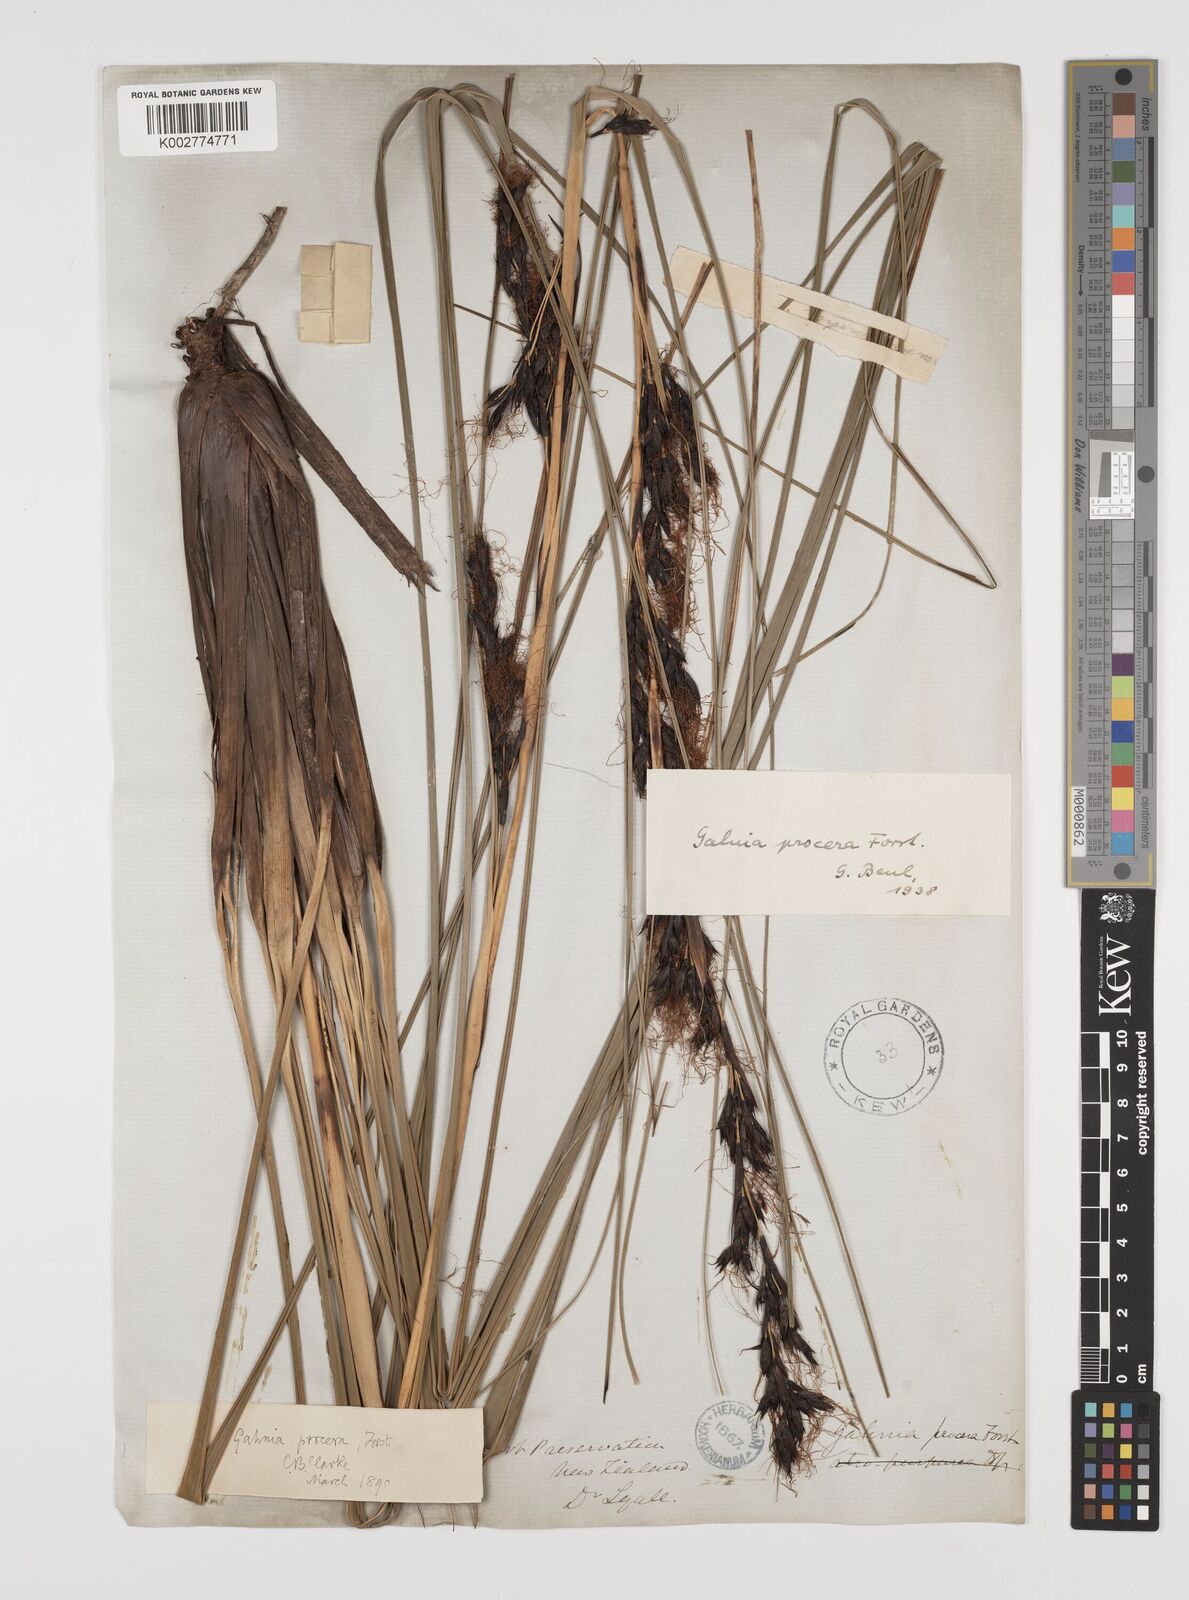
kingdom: Plantae
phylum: Tracheophyta
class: Liliopsida
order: Poales
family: Cyperaceae
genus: Gahnia
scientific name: Gahnia procera
